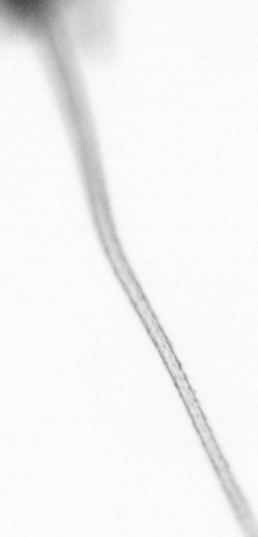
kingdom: Chromista
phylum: Ochrophyta
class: Bacillariophyceae
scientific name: Bacillariophyceae
